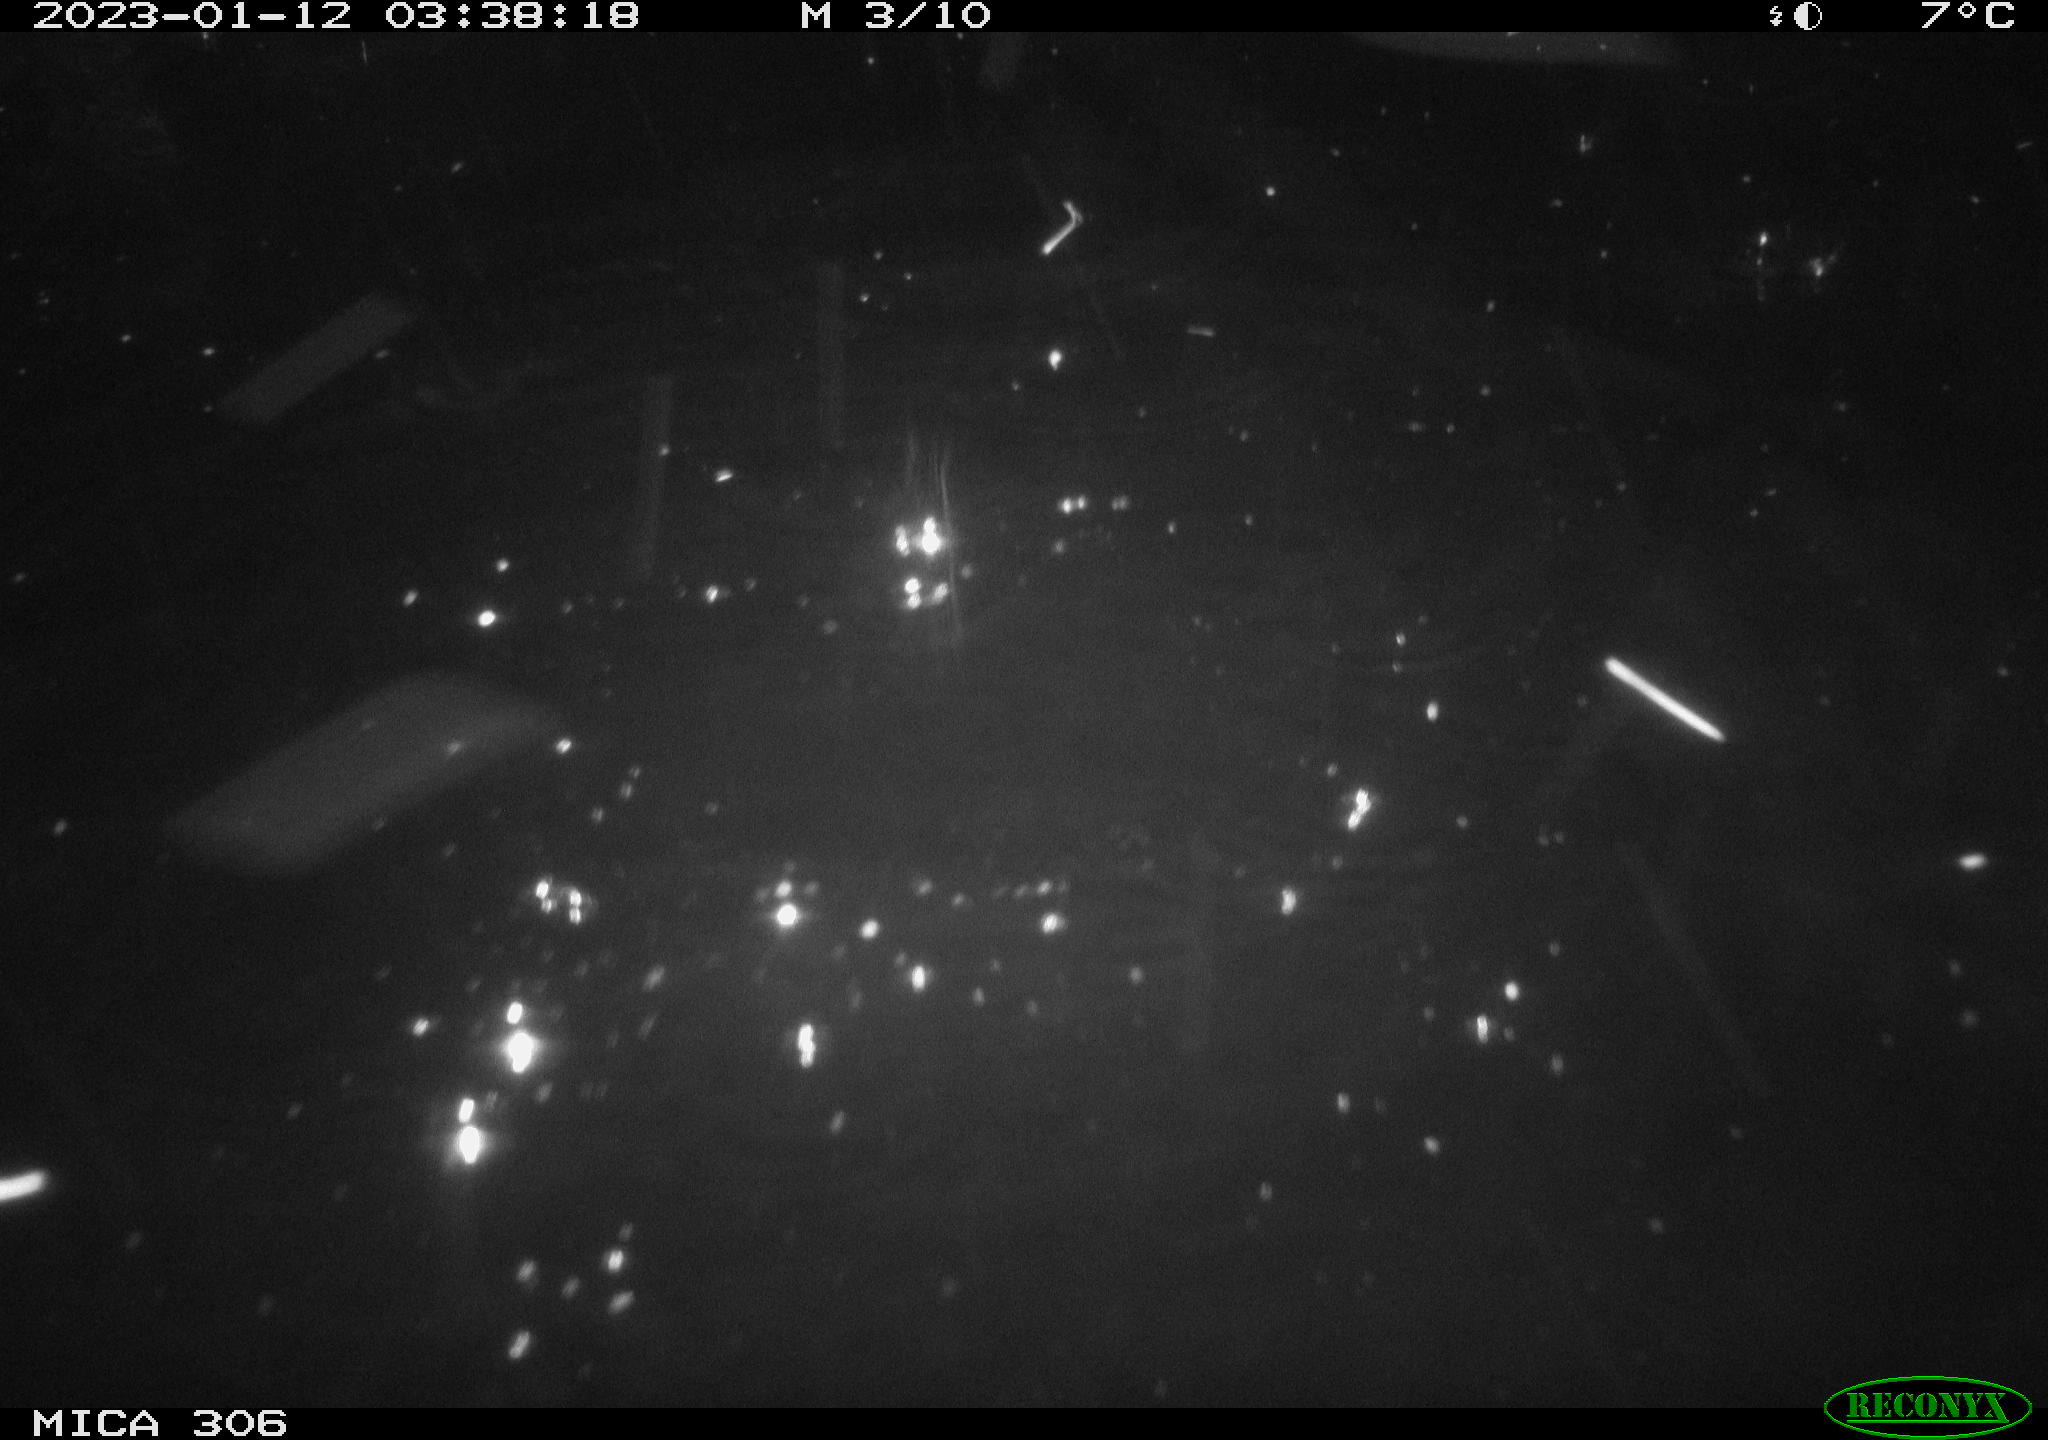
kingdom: Animalia
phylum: Chordata
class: Mammalia
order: Rodentia
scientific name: Rodentia
